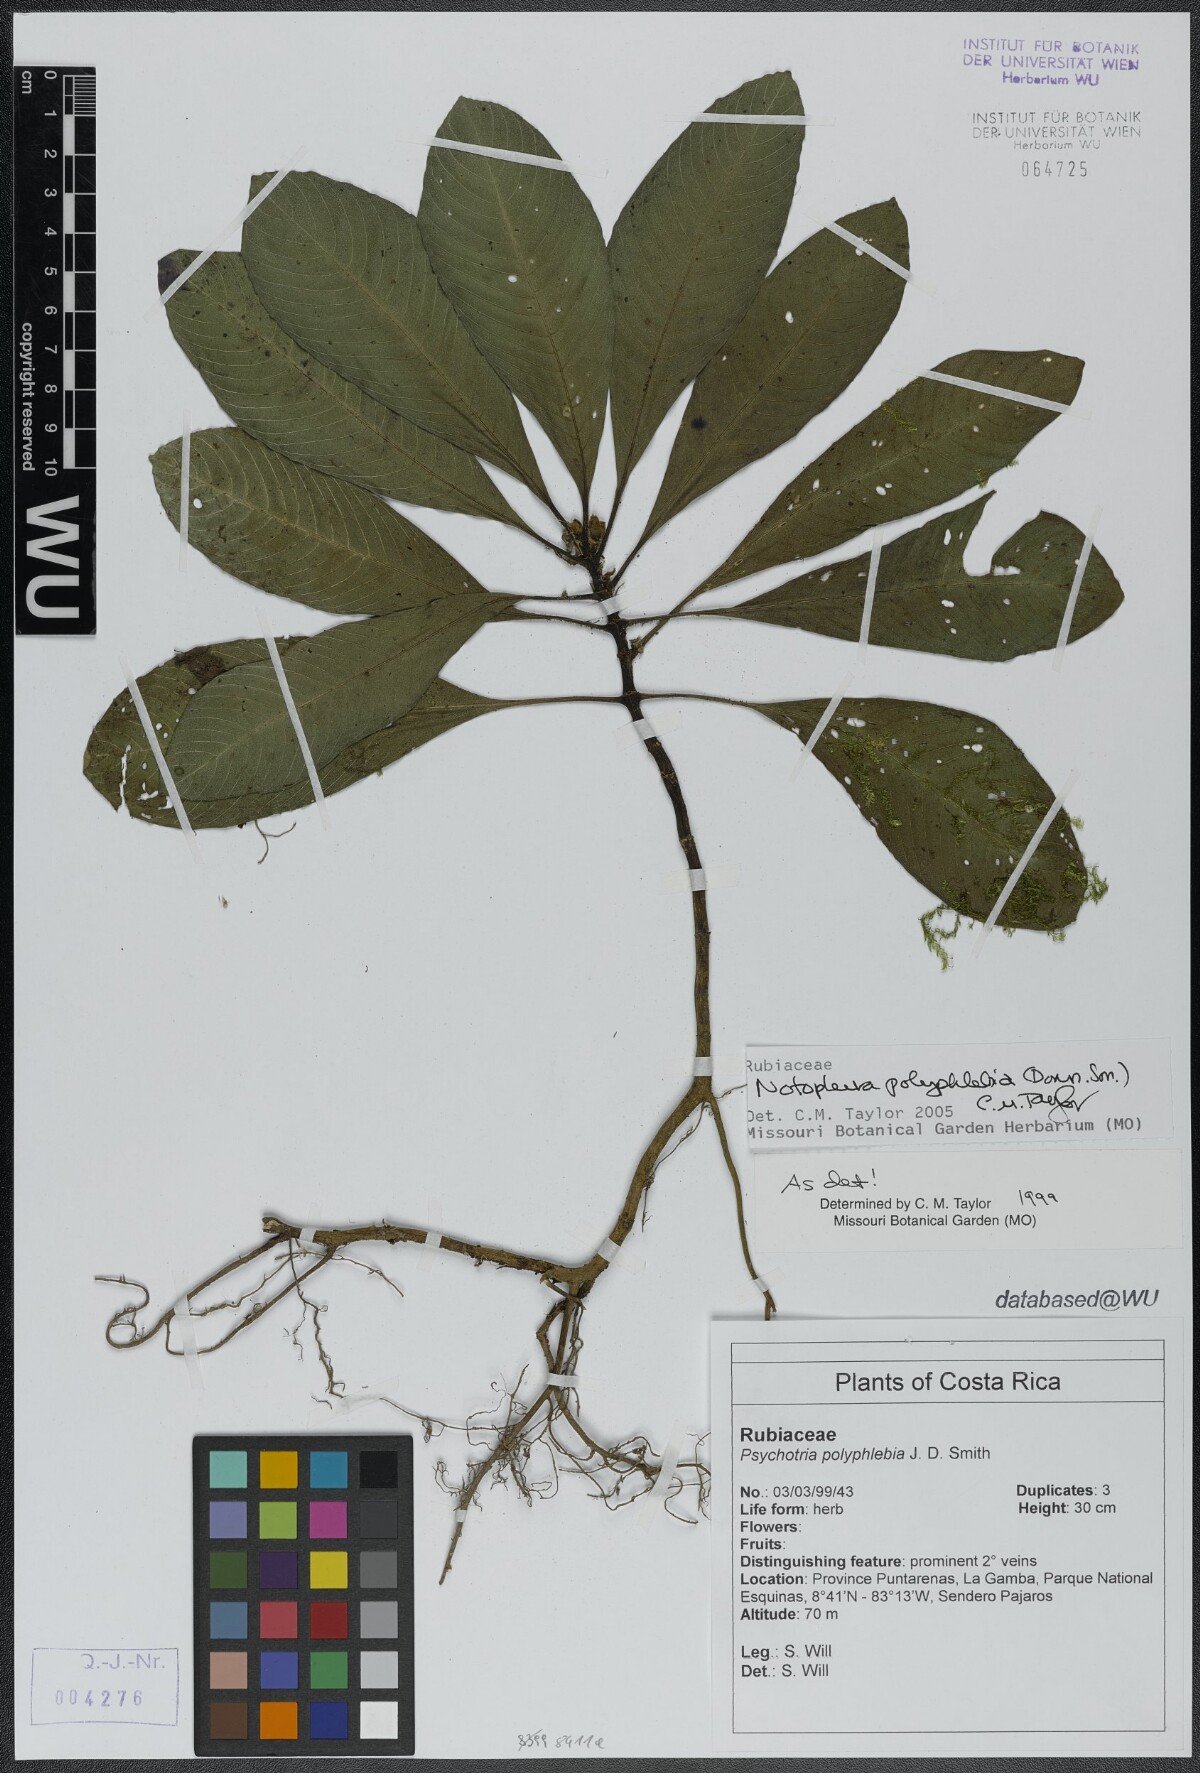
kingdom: Plantae
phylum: Tracheophyta
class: Magnoliopsida
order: Gentianales
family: Rubiaceae
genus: Notopleura
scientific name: Notopleura polyphlebia
